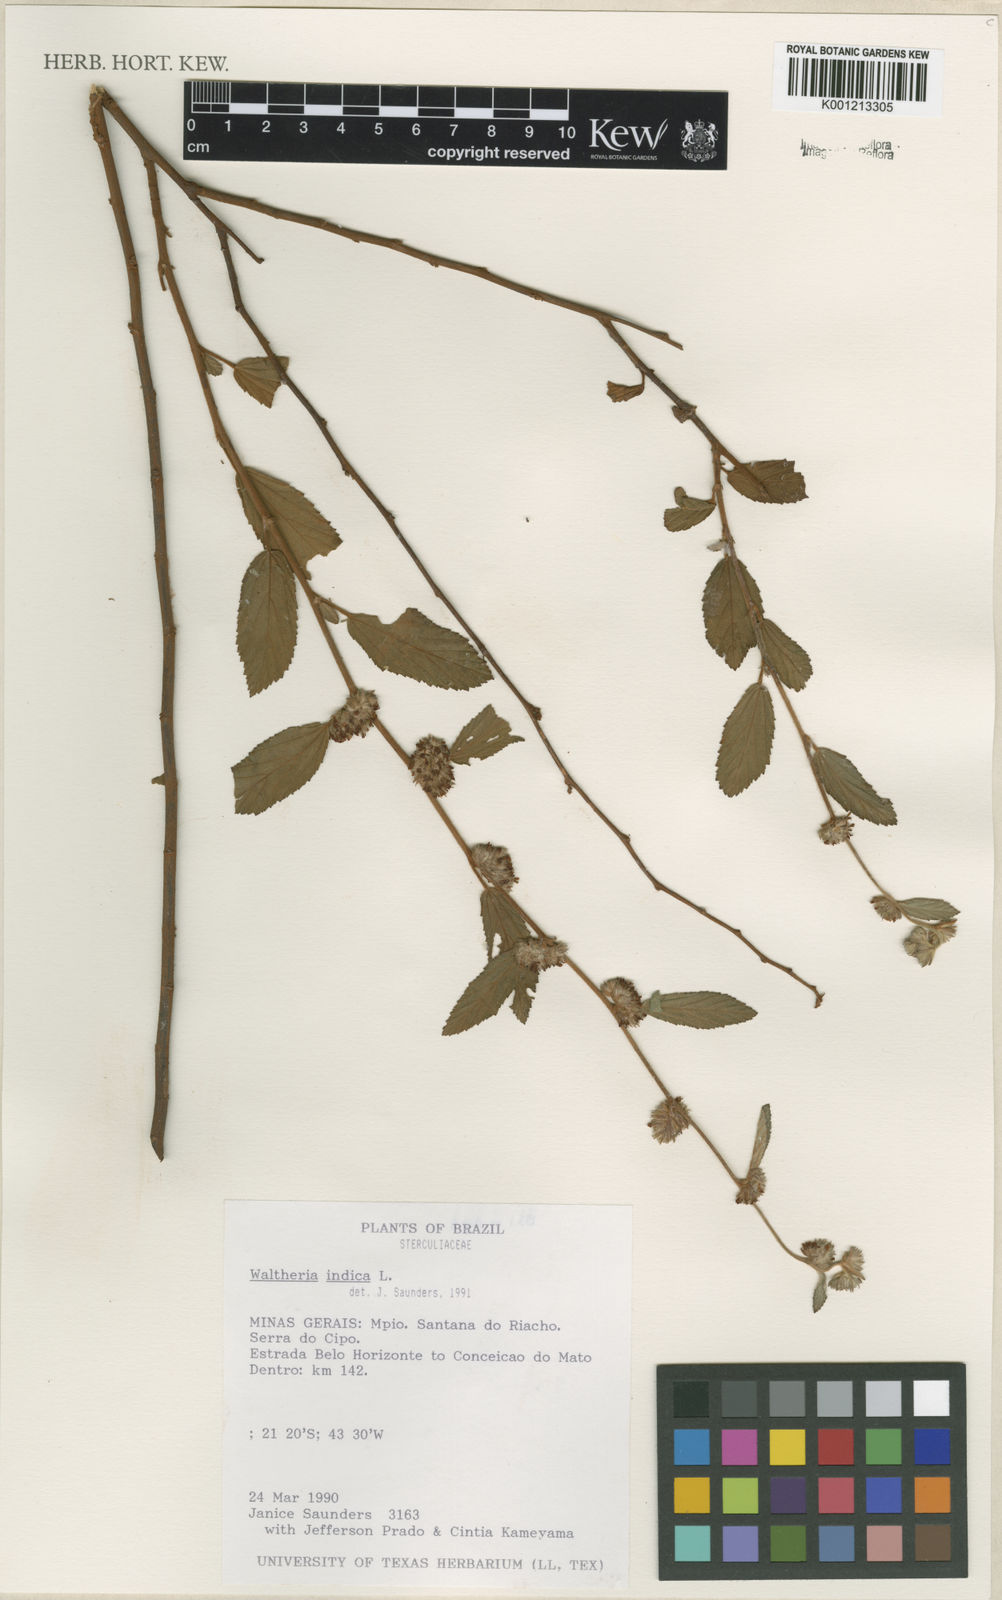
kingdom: Plantae
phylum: Tracheophyta
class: Magnoliopsida
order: Malvales
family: Malvaceae
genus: Waltheria
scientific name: Waltheria indica
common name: Leather-coat
